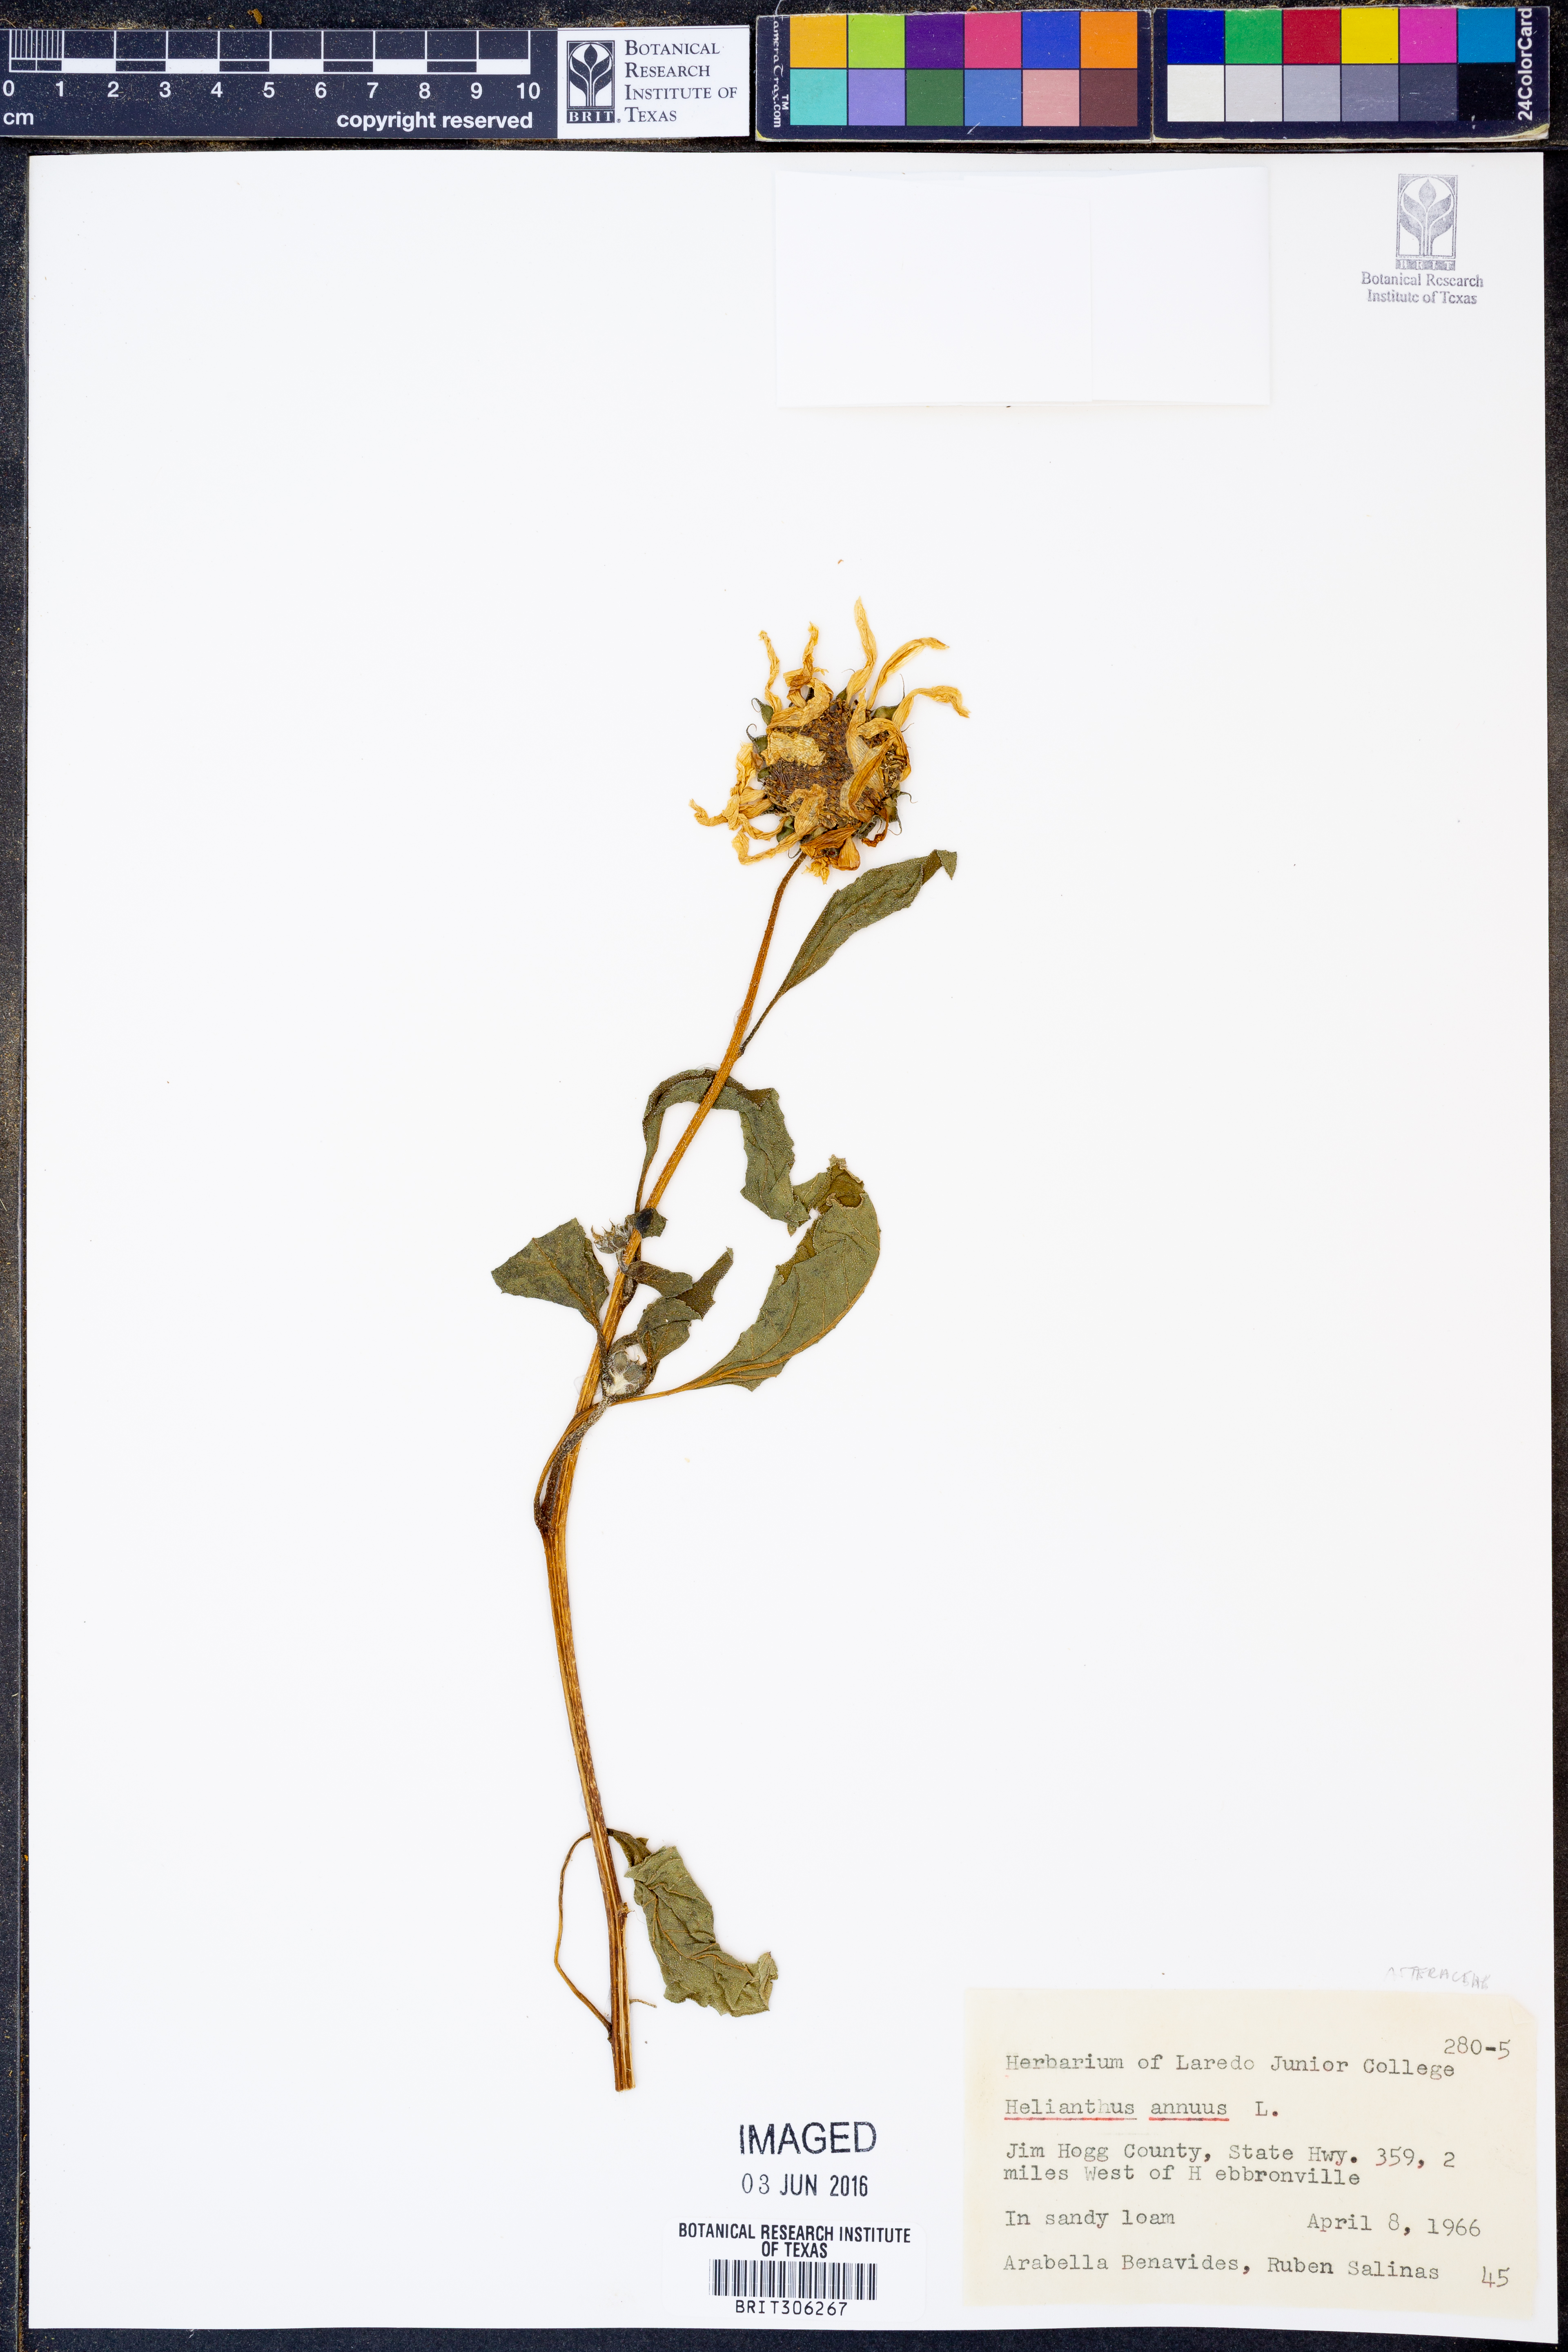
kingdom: Plantae
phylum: Tracheophyta
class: Magnoliopsida
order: Asterales
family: Asteraceae
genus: Helianthus
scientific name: Helianthus annuus
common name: Sunflower
